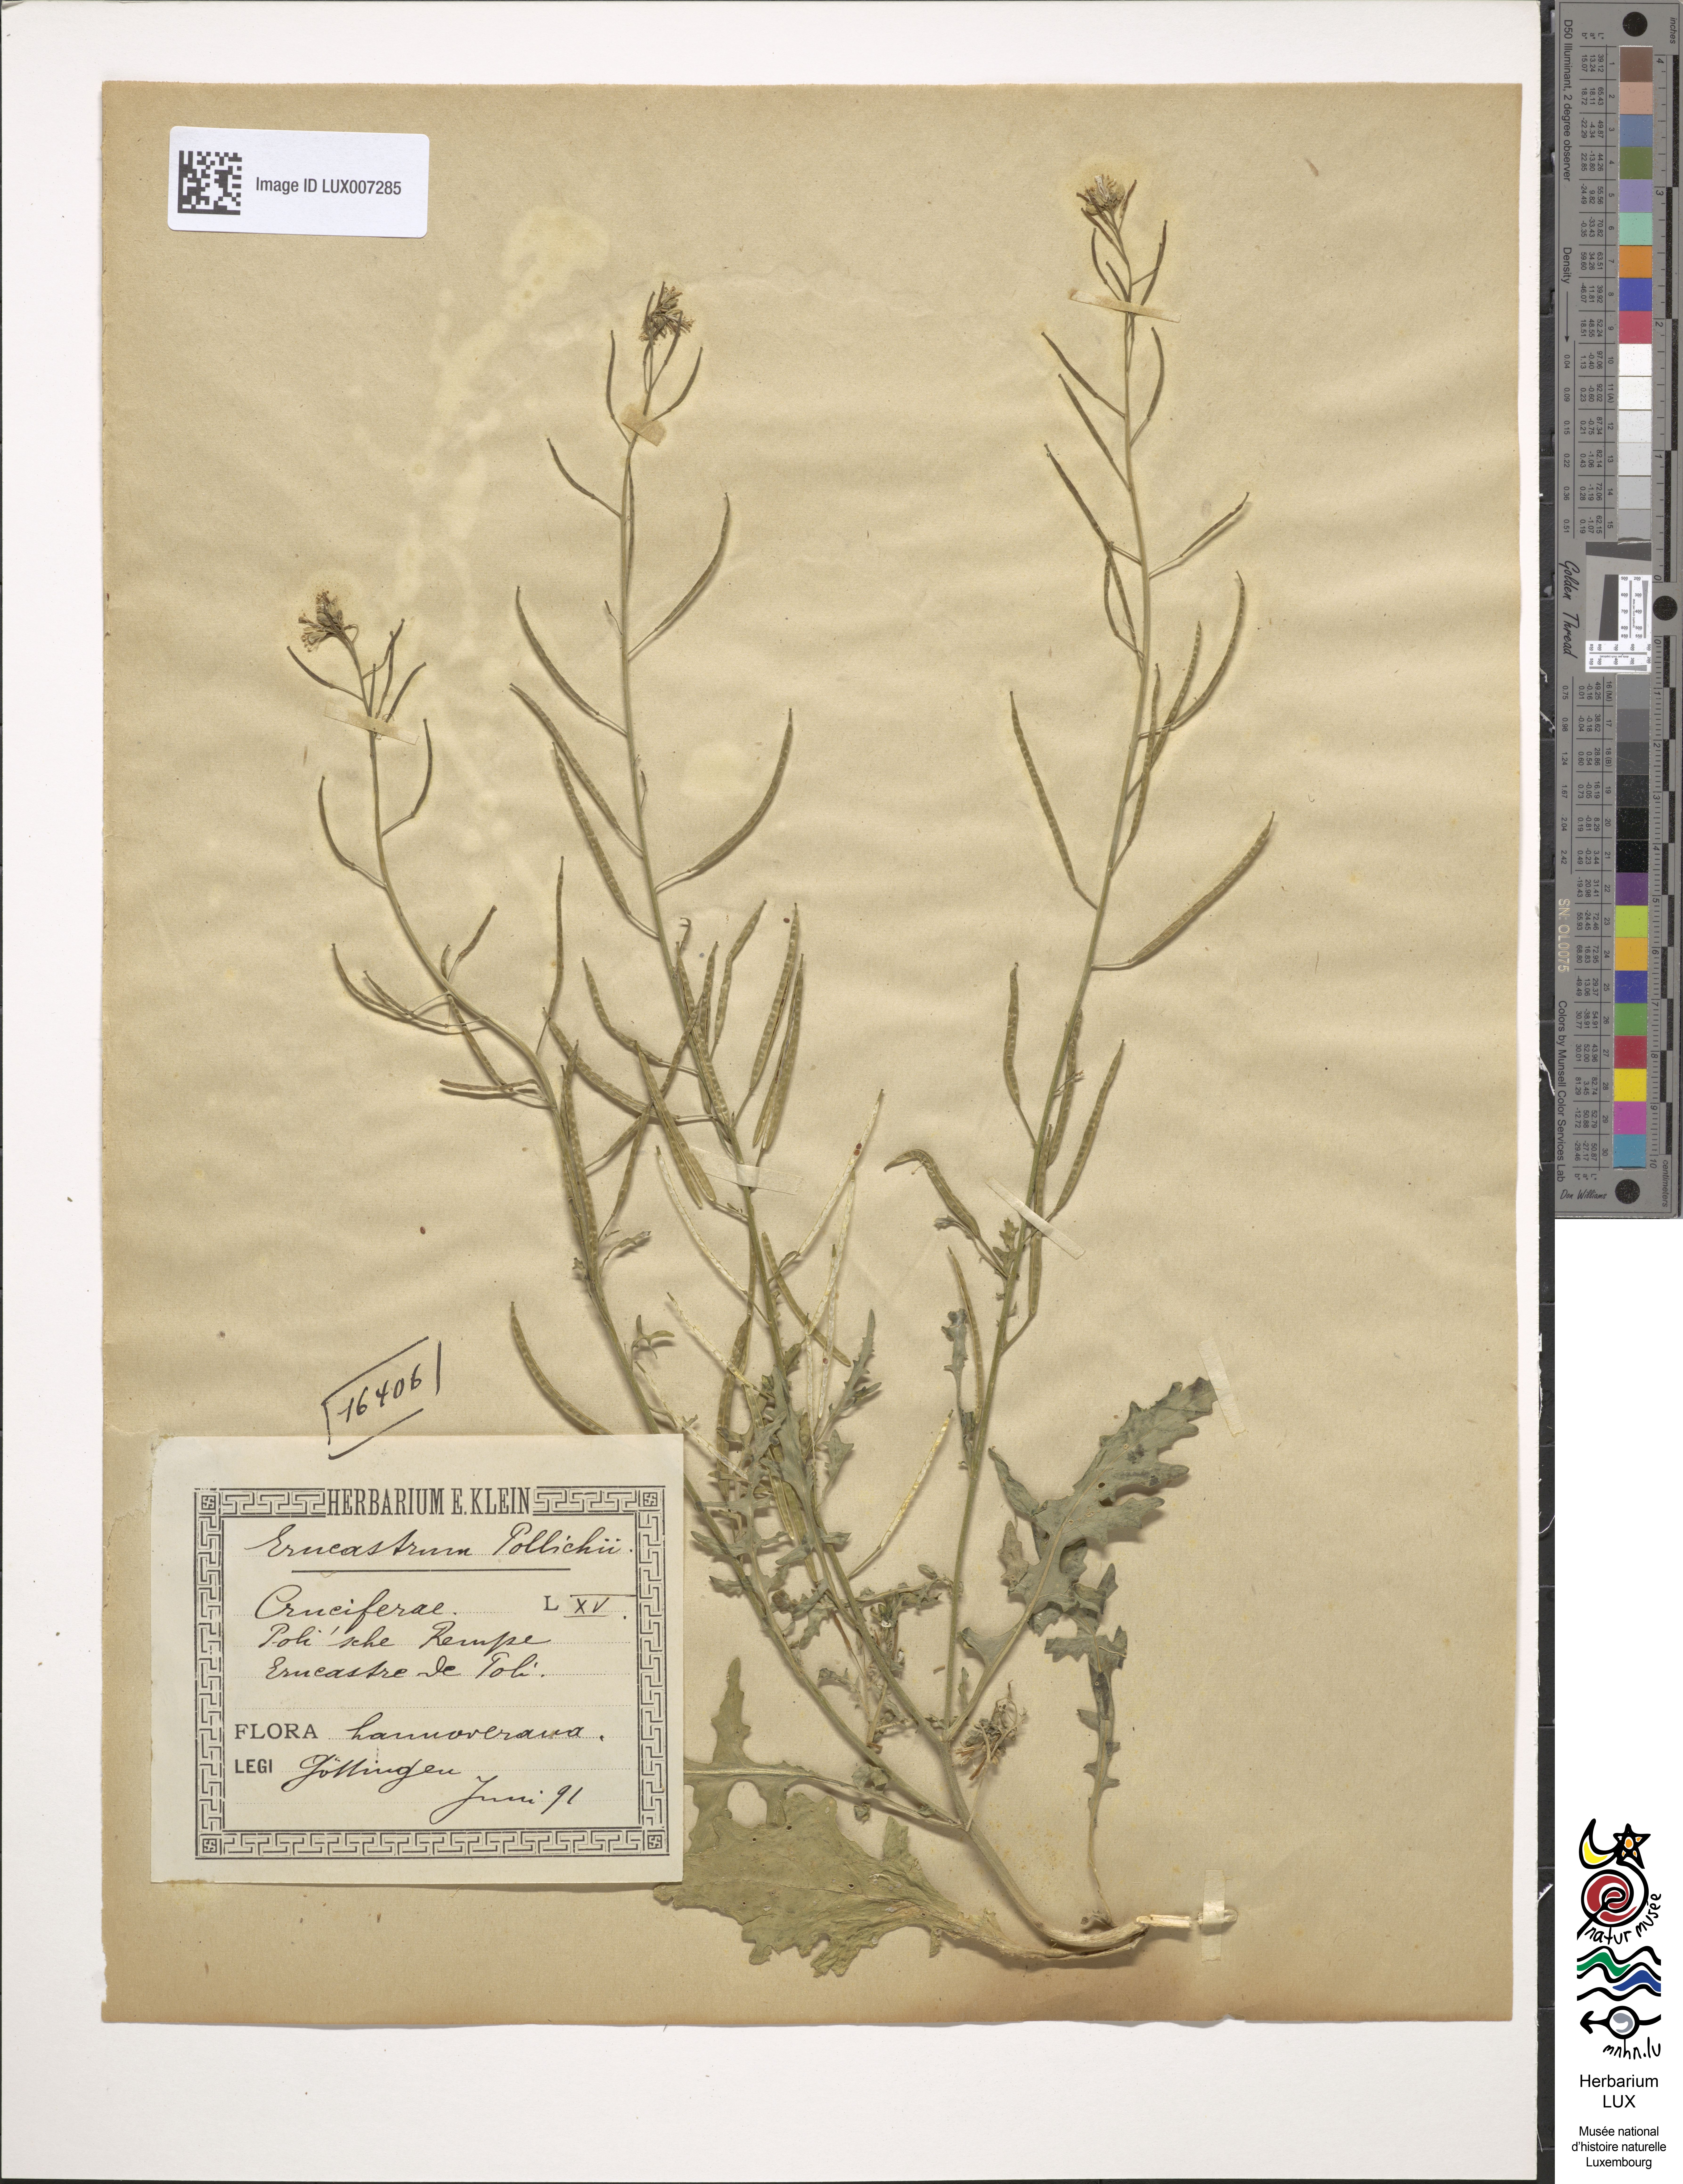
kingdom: Plantae
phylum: Tracheophyta
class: Magnoliopsida
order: Brassicales
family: Brassicaceae
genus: Erucastrum
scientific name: Erucastrum gallicum
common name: Hairy rocket
